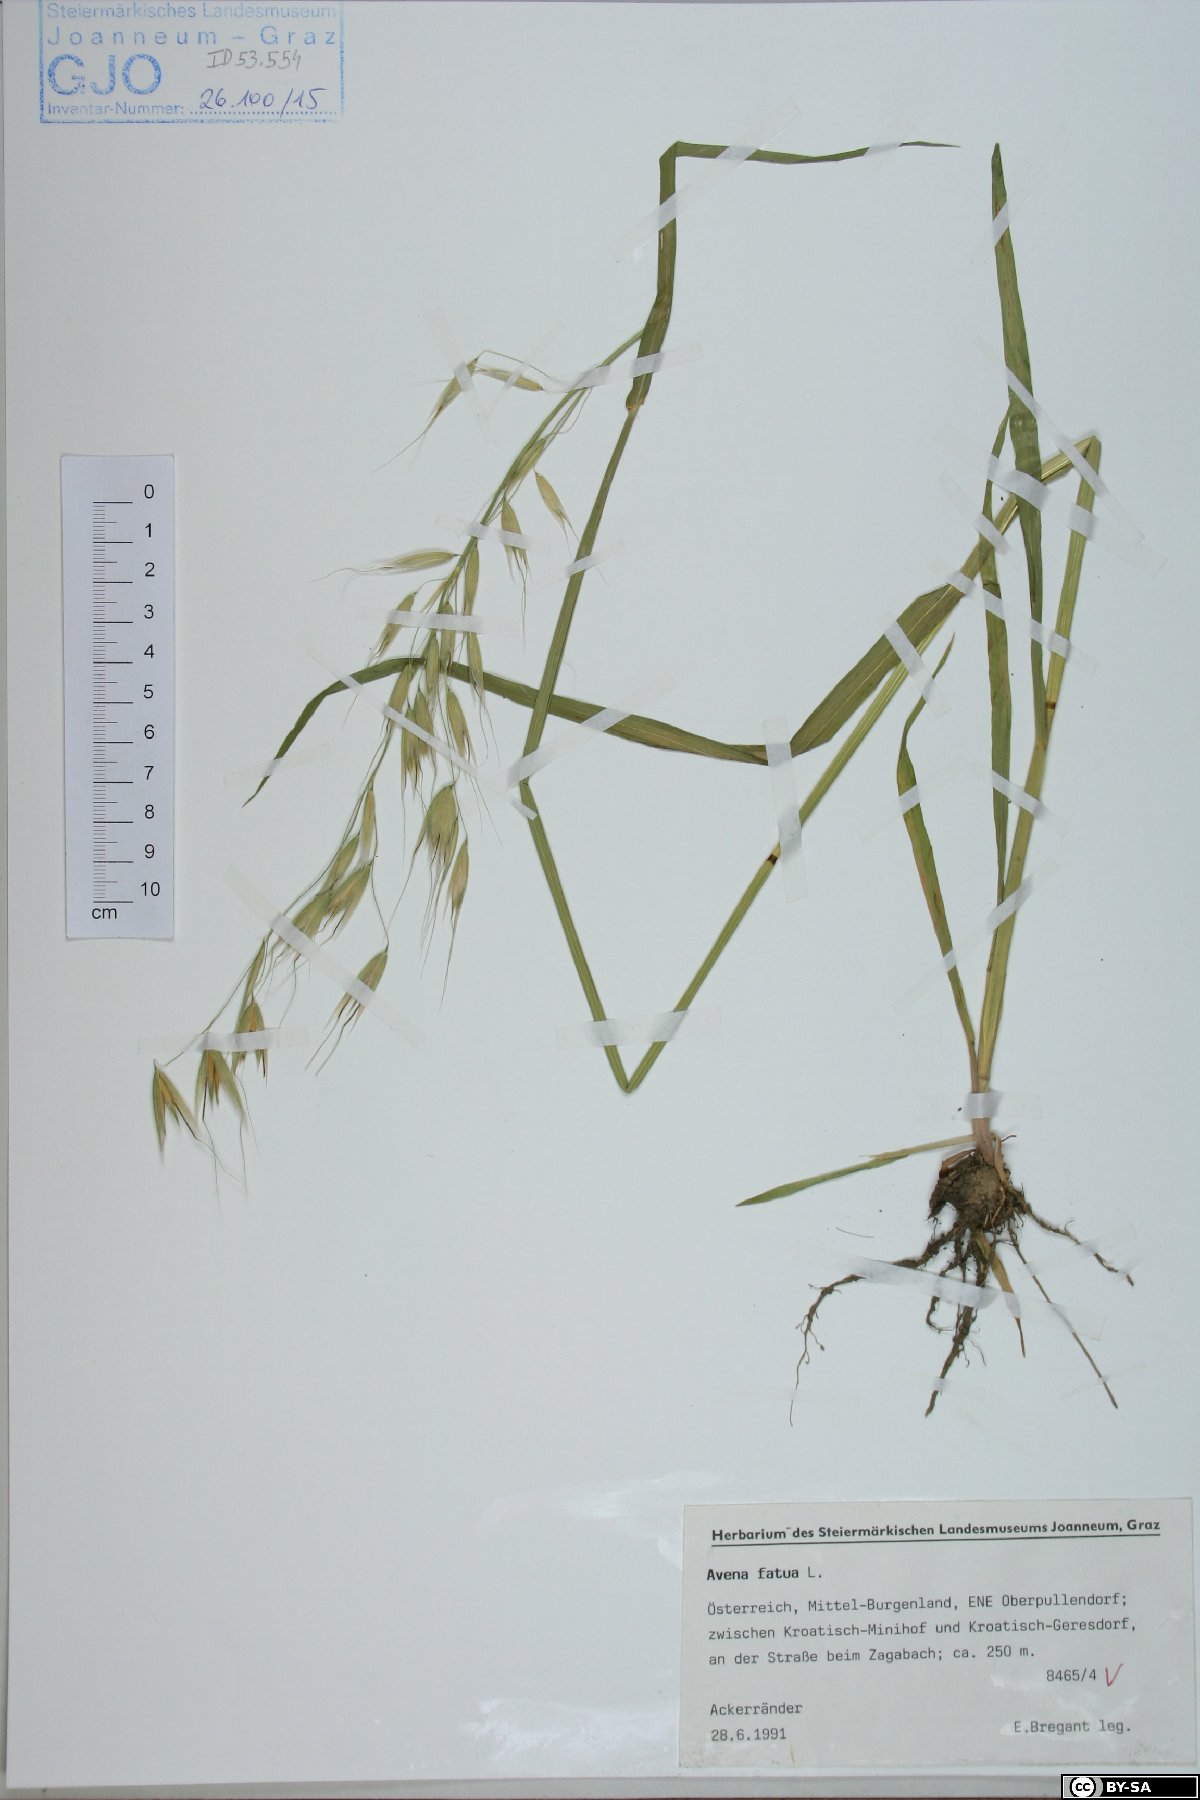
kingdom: Plantae
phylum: Tracheophyta
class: Liliopsida
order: Poales
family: Poaceae
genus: Avena
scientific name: Avena fatua
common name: Wild oat
